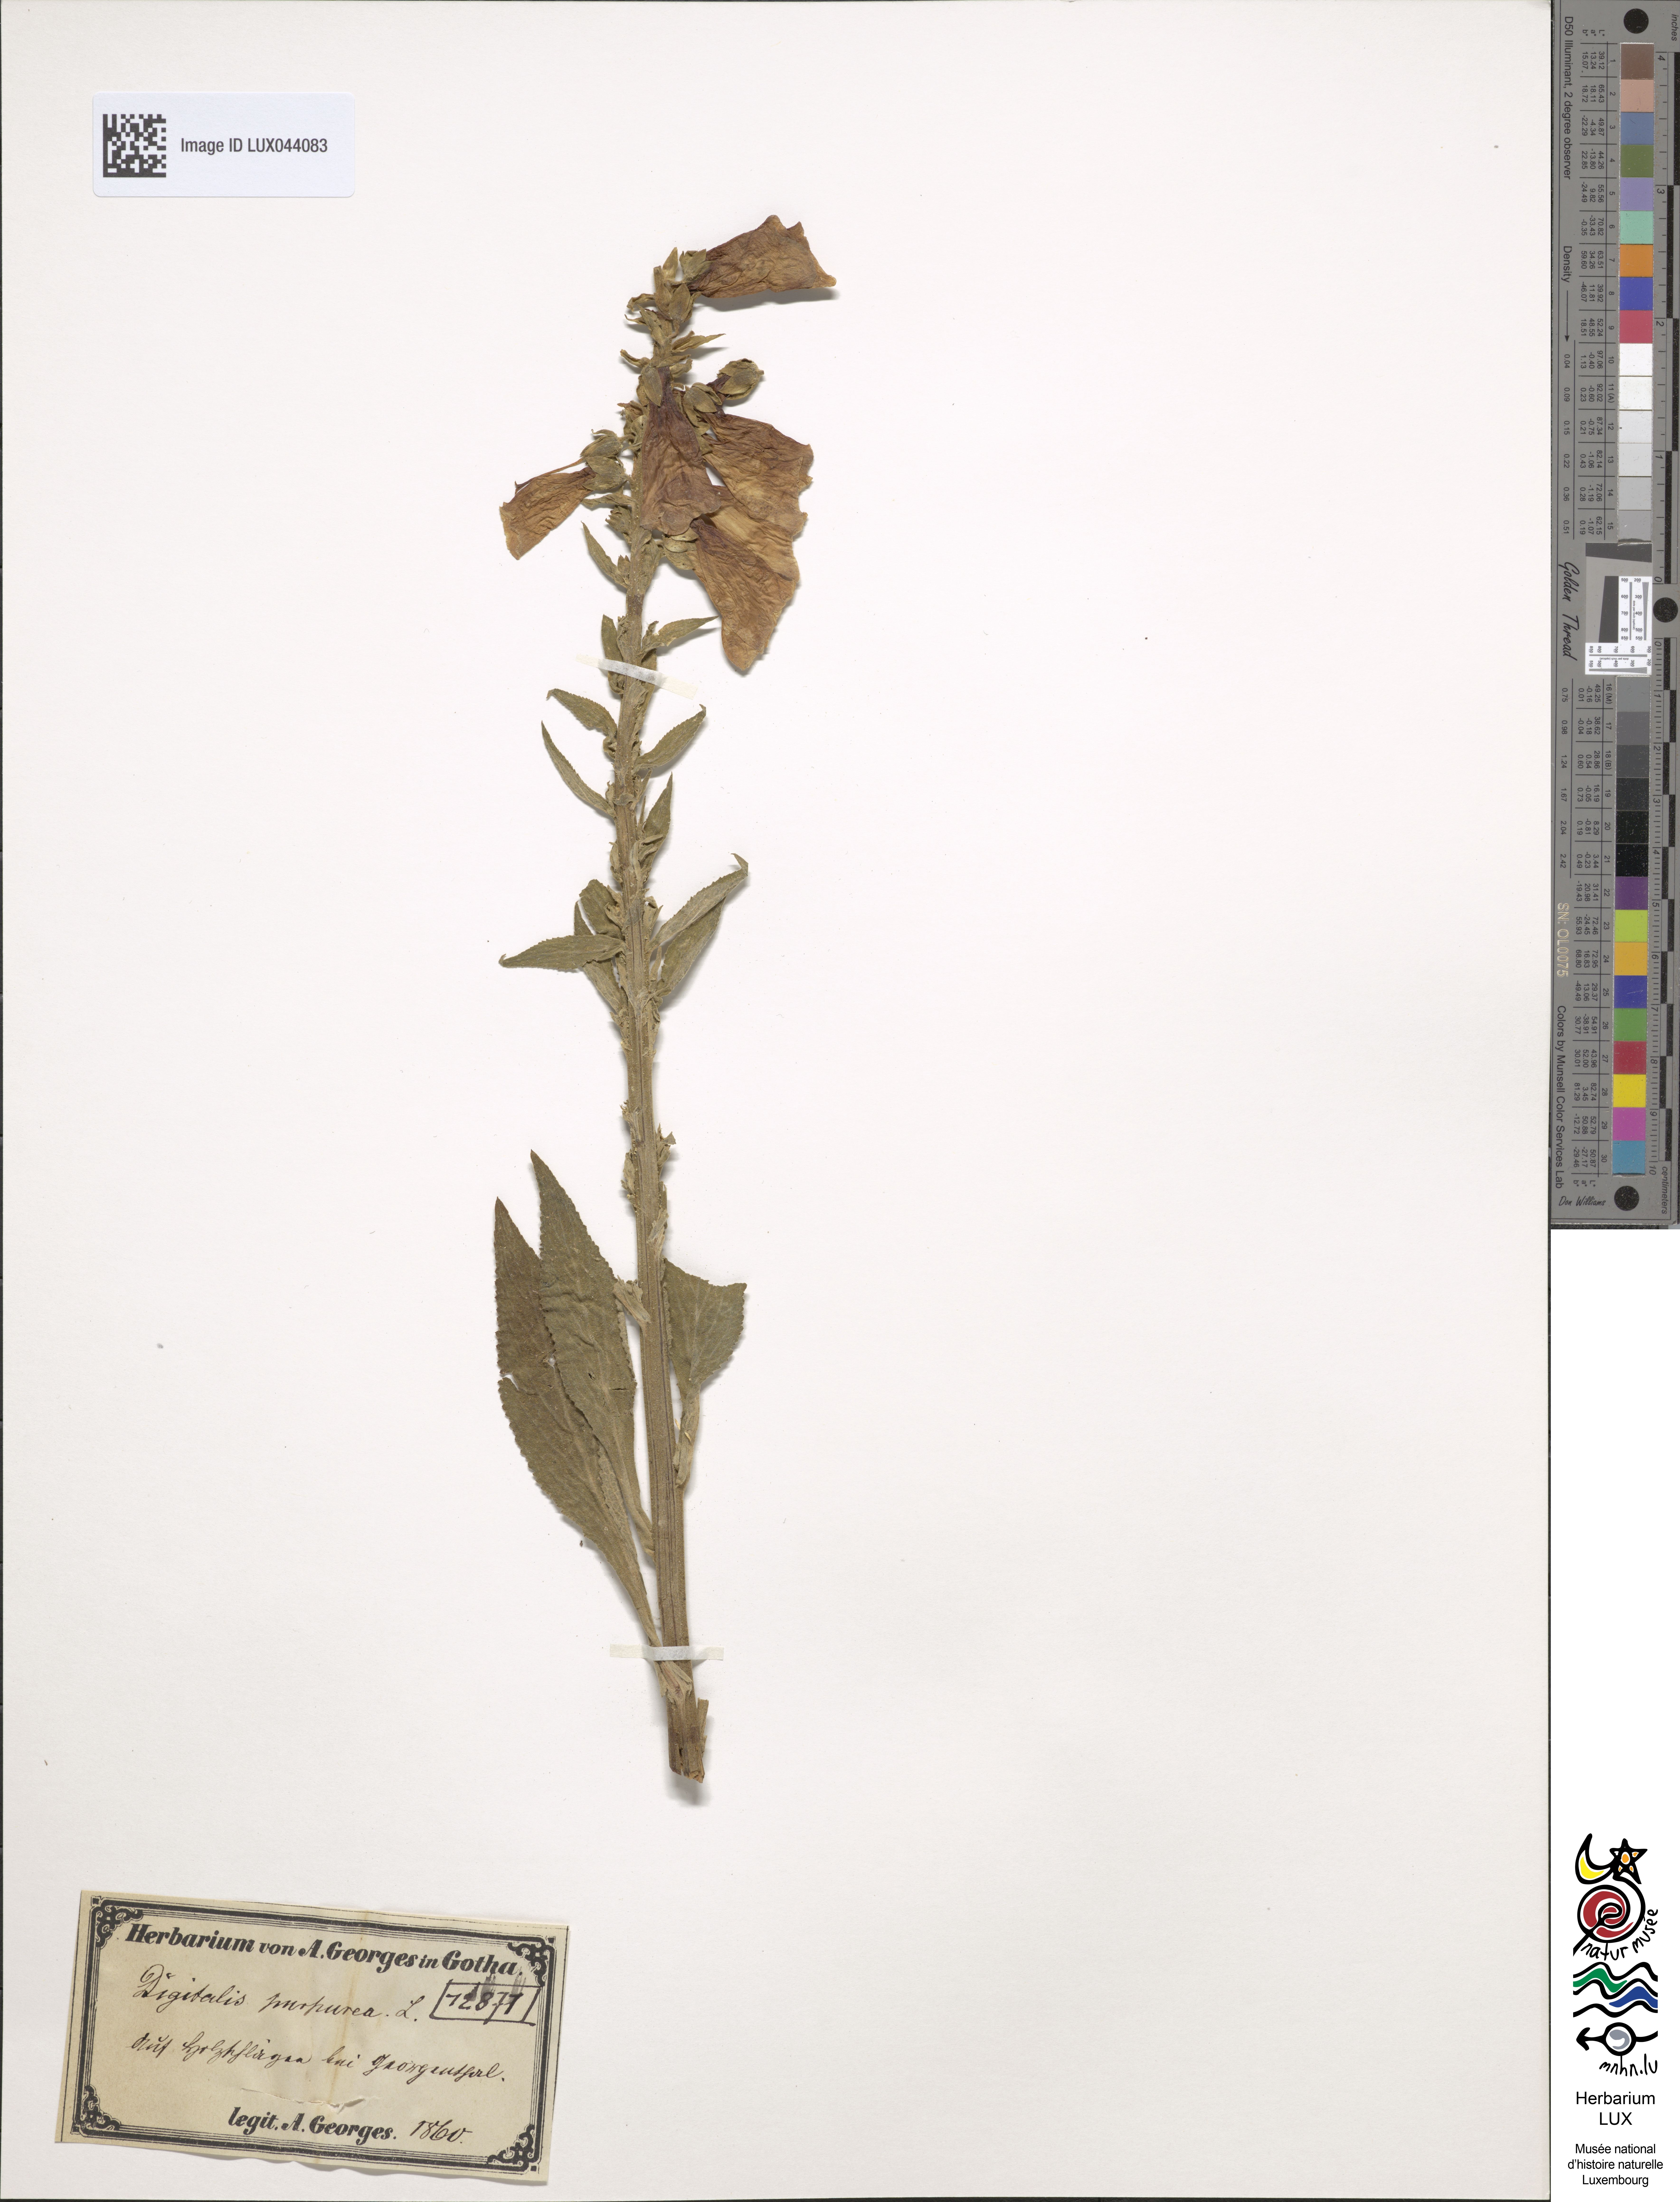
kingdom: Plantae
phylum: Tracheophyta
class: Magnoliopsida
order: Lamiales
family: Plantaginaceae
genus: Digitalis
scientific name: Digitalis purpurea
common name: Foxglove
